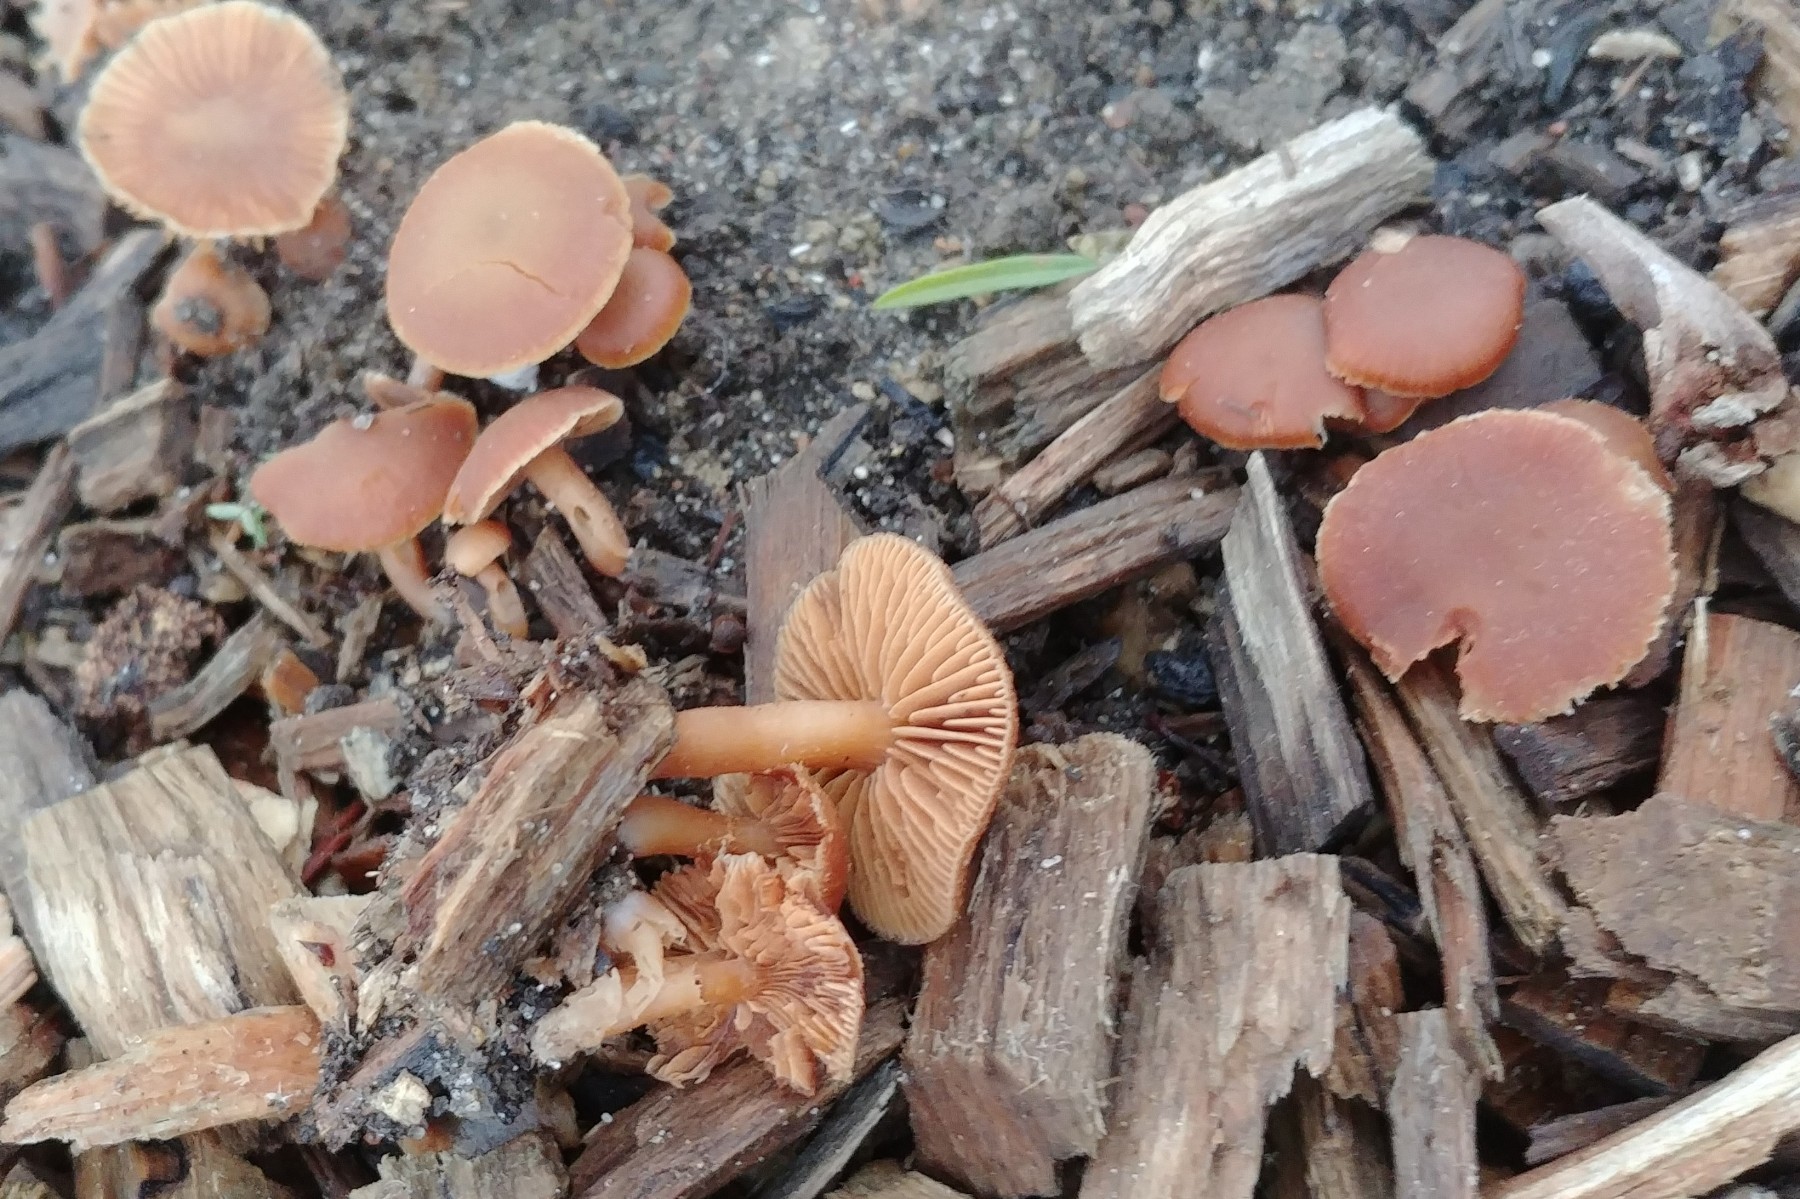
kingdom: Fungi
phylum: Basidiomycota
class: Agaricomycetes
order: Agaricales
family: Tubariaceae
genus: Tubaria
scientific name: Tubaria furfuracea
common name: kliddet fnughat
